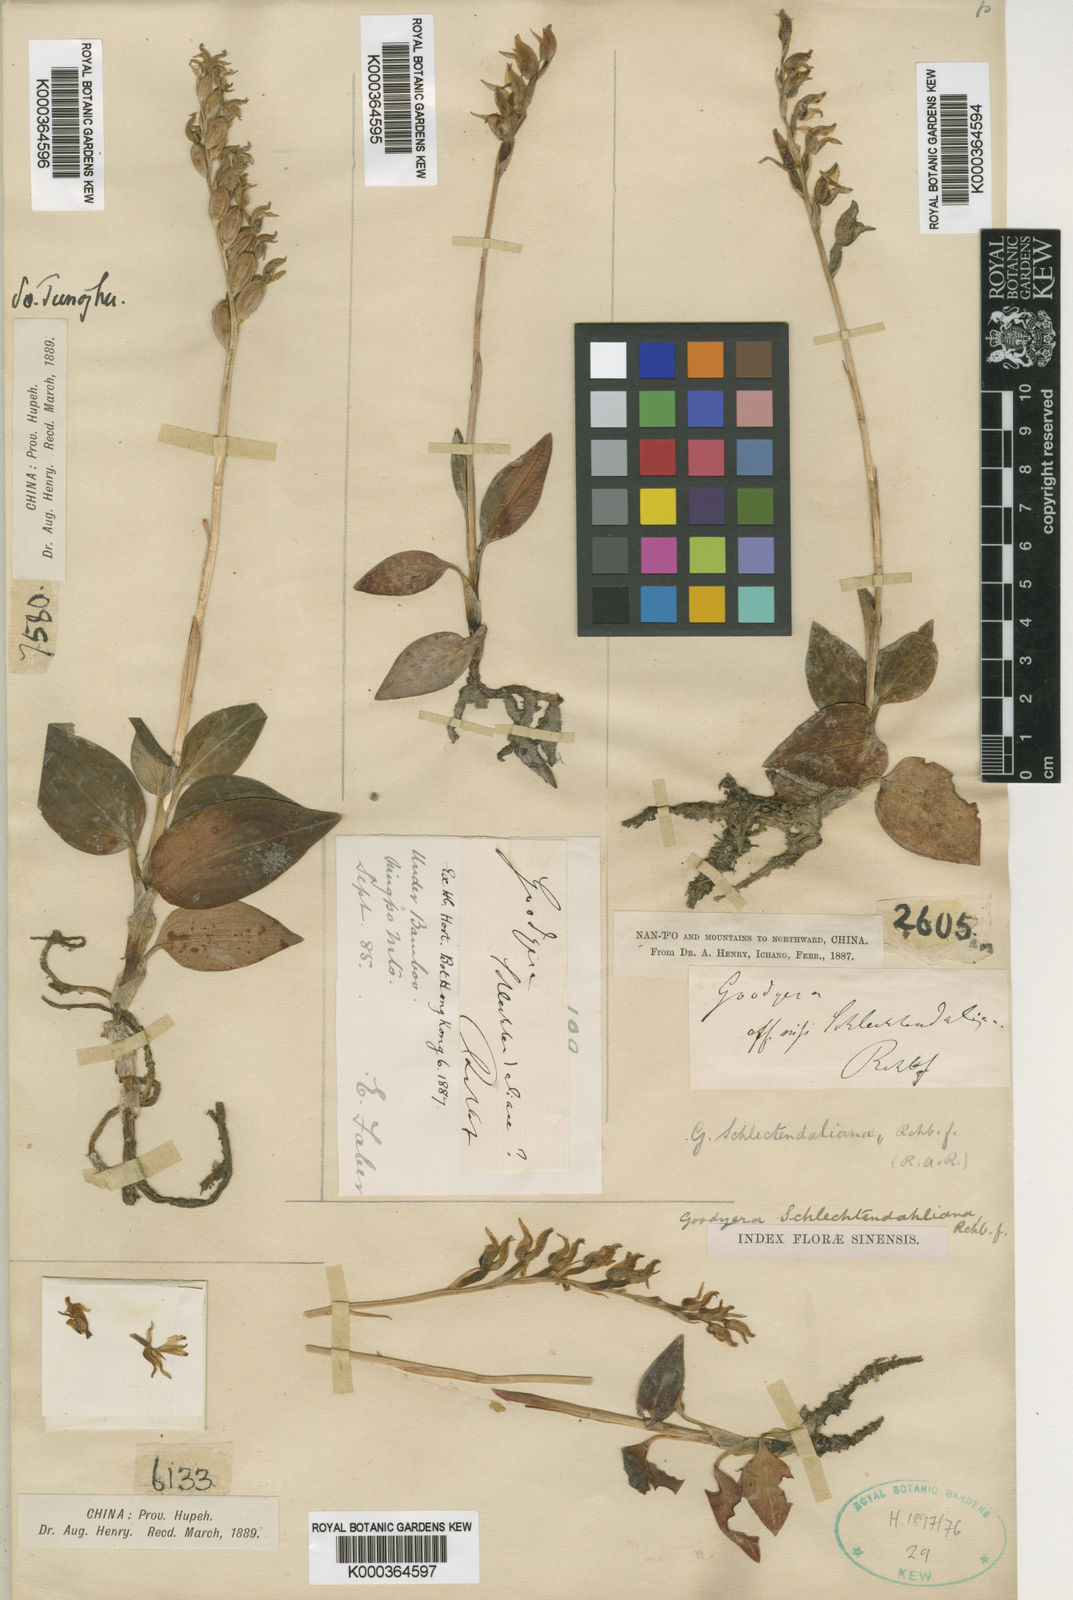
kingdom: Plantae
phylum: Tracheophyta
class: Liliopsida
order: Asparagales
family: Orchidaceae
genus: Goodyera
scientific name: Goodyera schlechtendaliana
